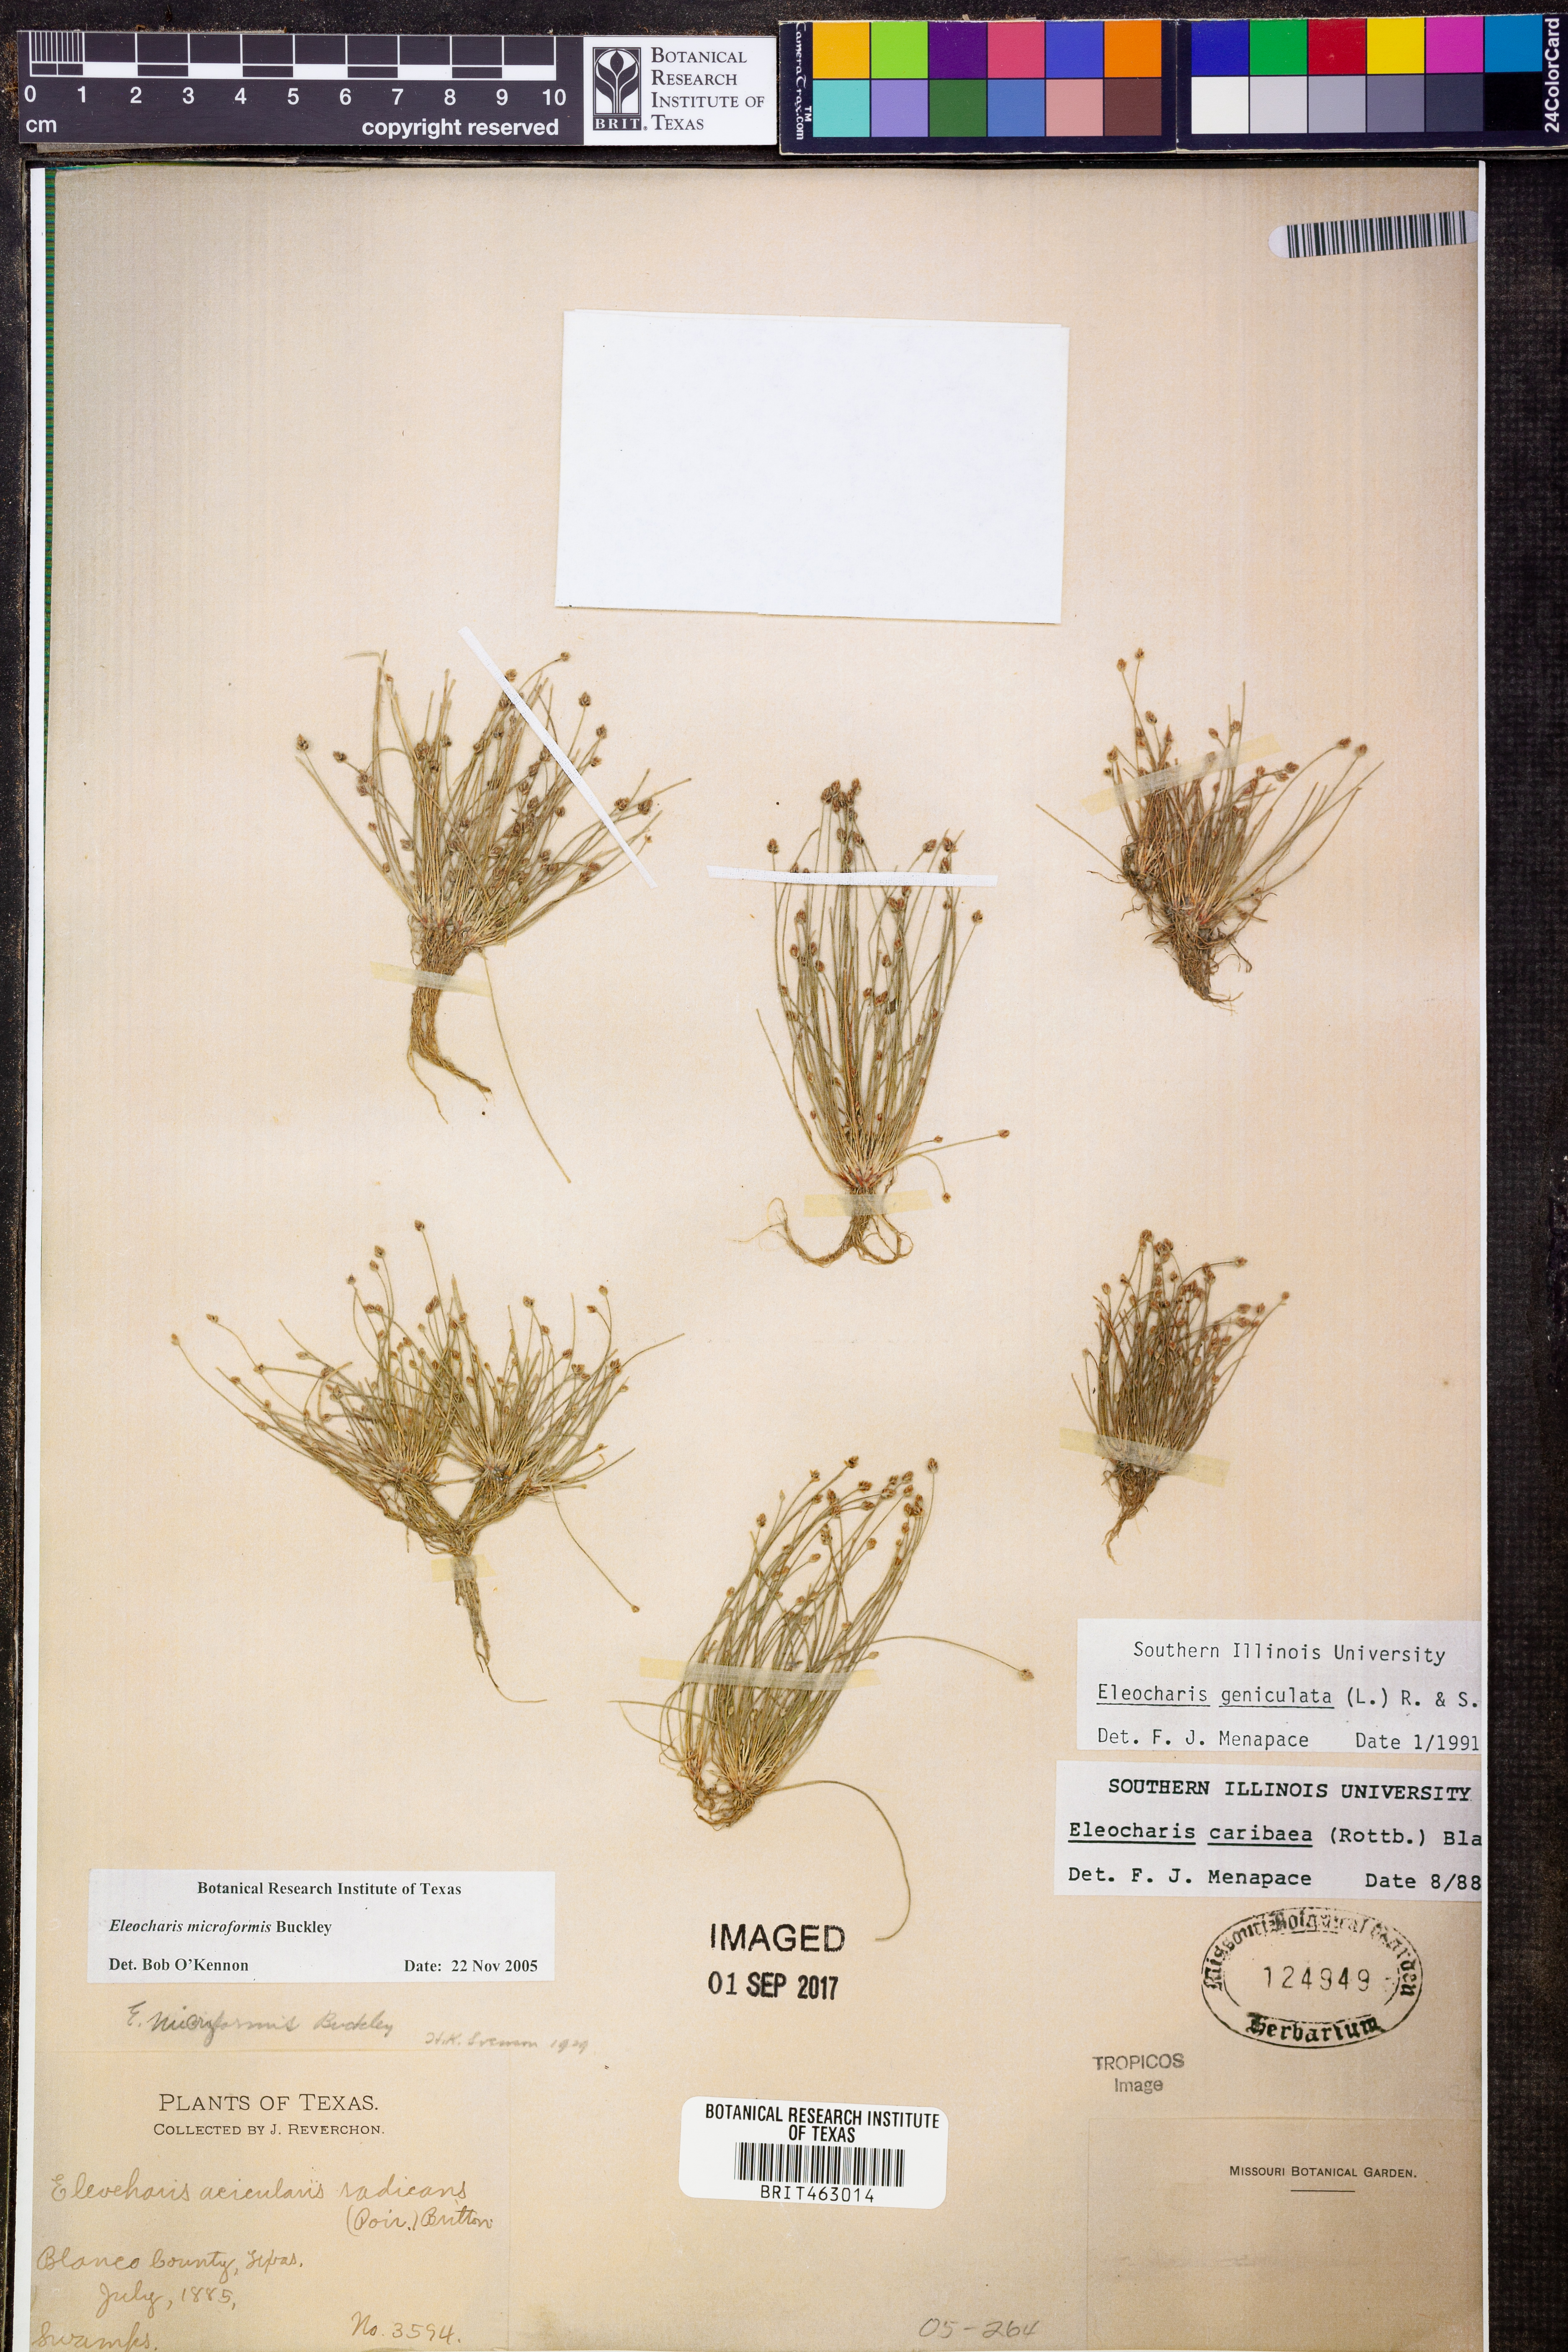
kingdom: Plantae
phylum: Tracheophyta
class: Liliopsida
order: Poales
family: Cyperaceae
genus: Eleocharis
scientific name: Eleocharis microformis
